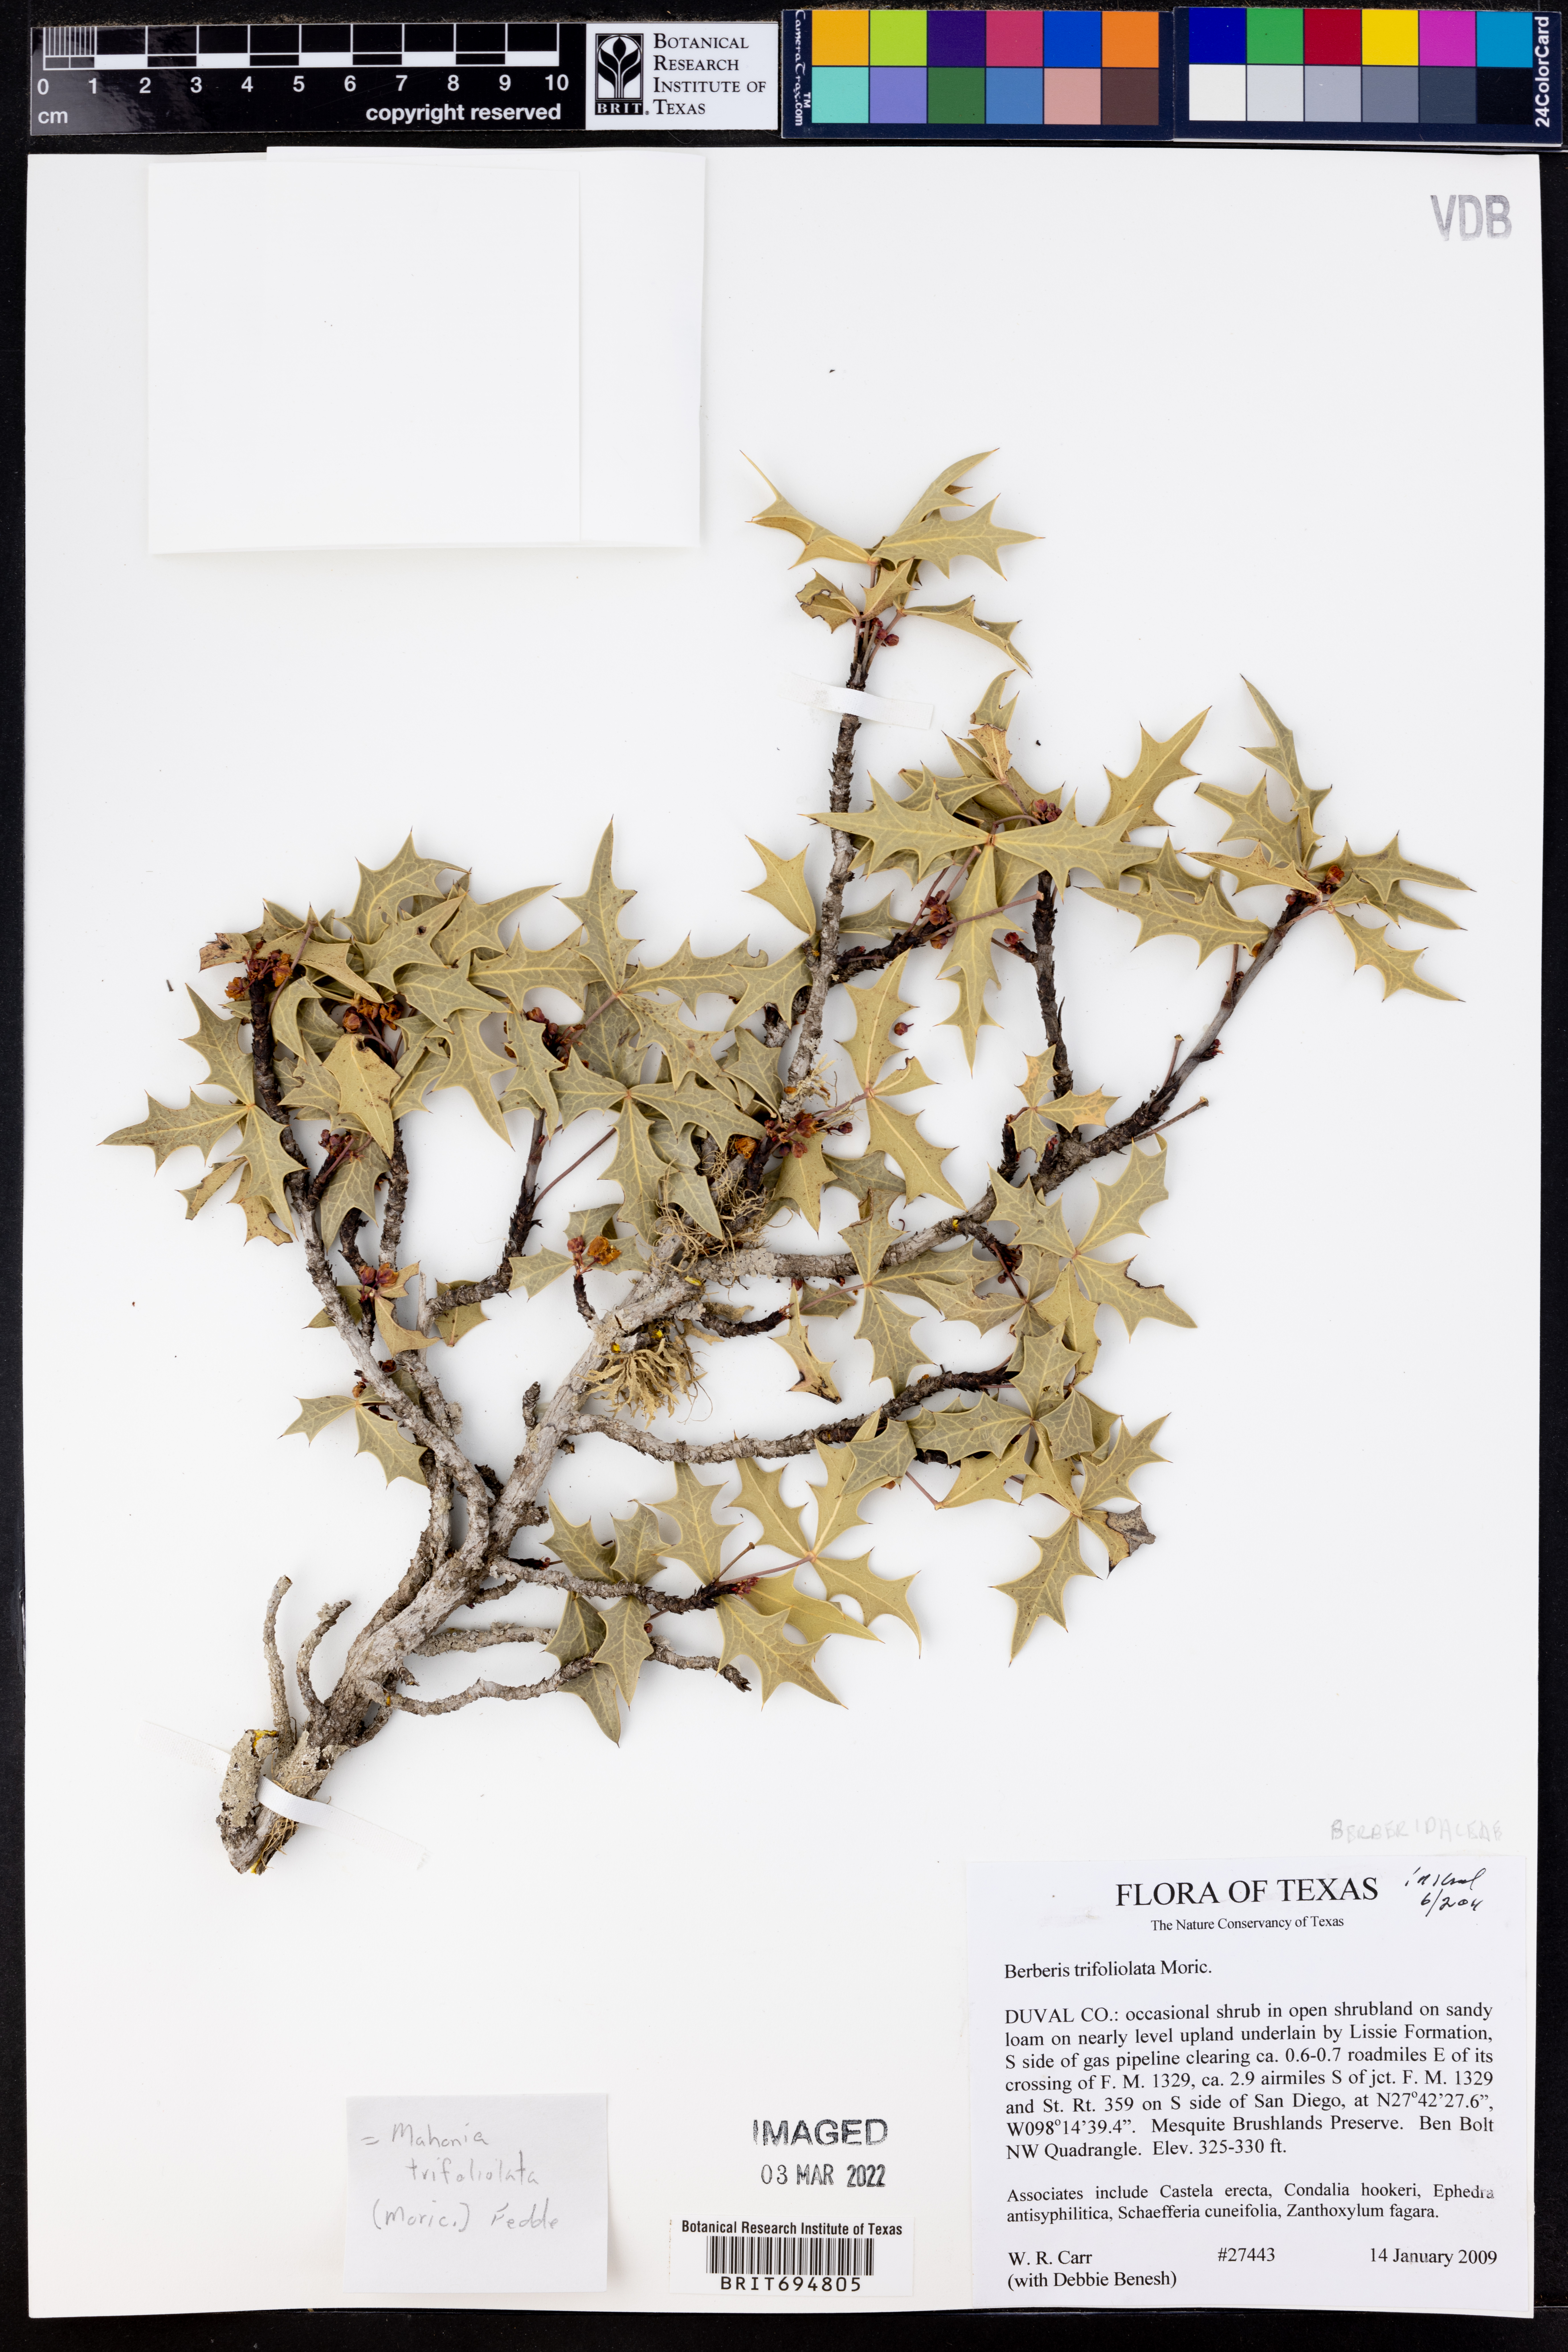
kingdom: Plantae
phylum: Tracheophyta
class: Magnoliopsida
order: Ranunculales
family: Berberidaceae
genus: Alloberberis
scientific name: Alloberberis fremontii
